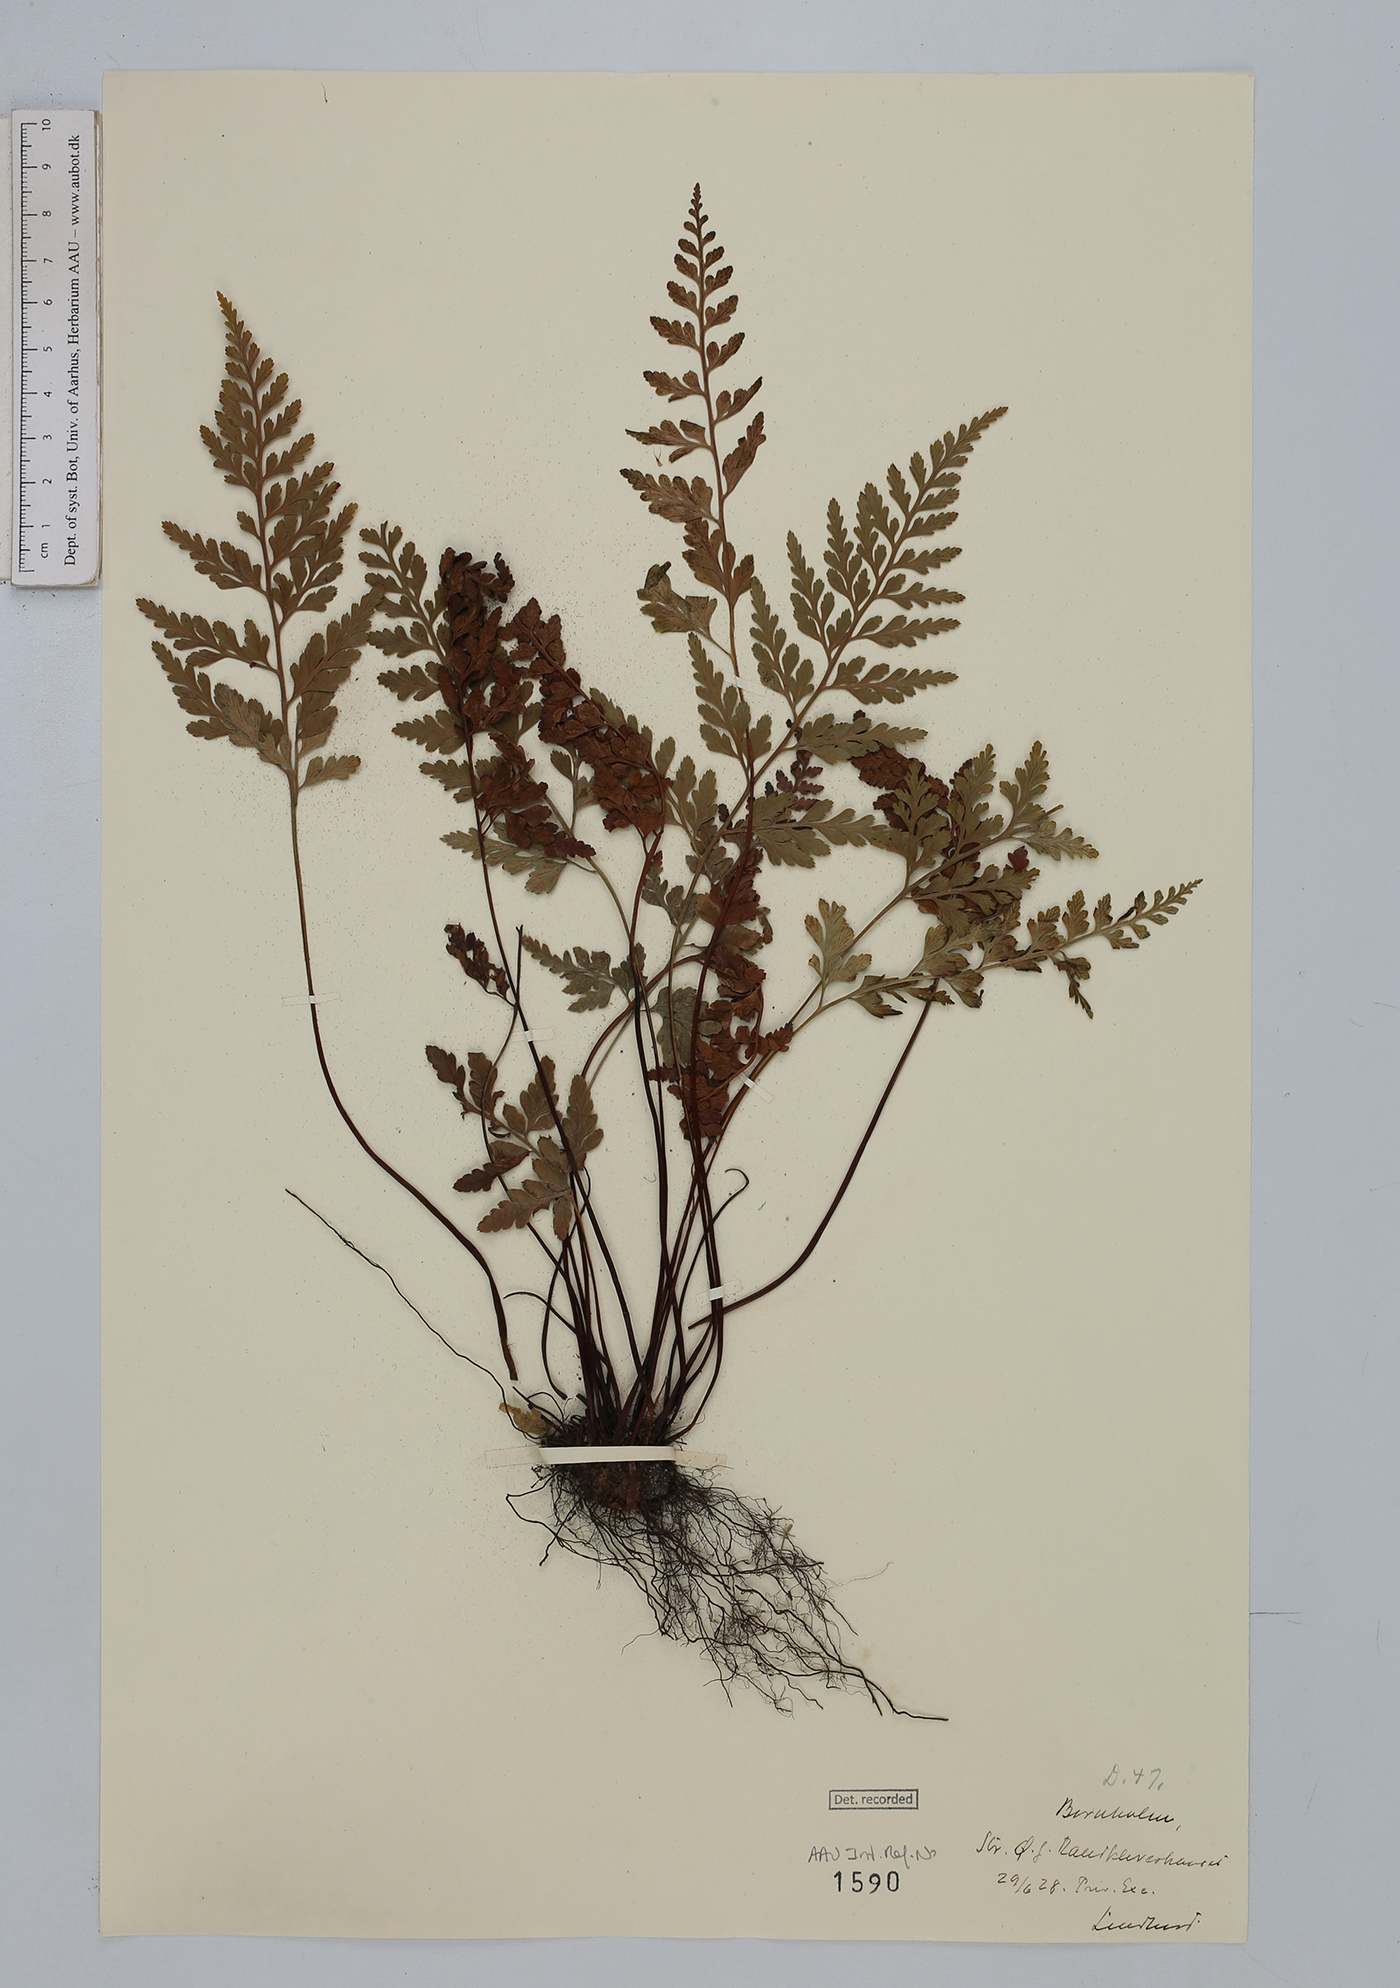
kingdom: Plantae
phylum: Tracheophyta
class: Polypodiopsida
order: Polypodiales
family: Aspleniaceae
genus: Asplenium
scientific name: Asplenium adiantum-nigrum
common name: Black spleenwort
